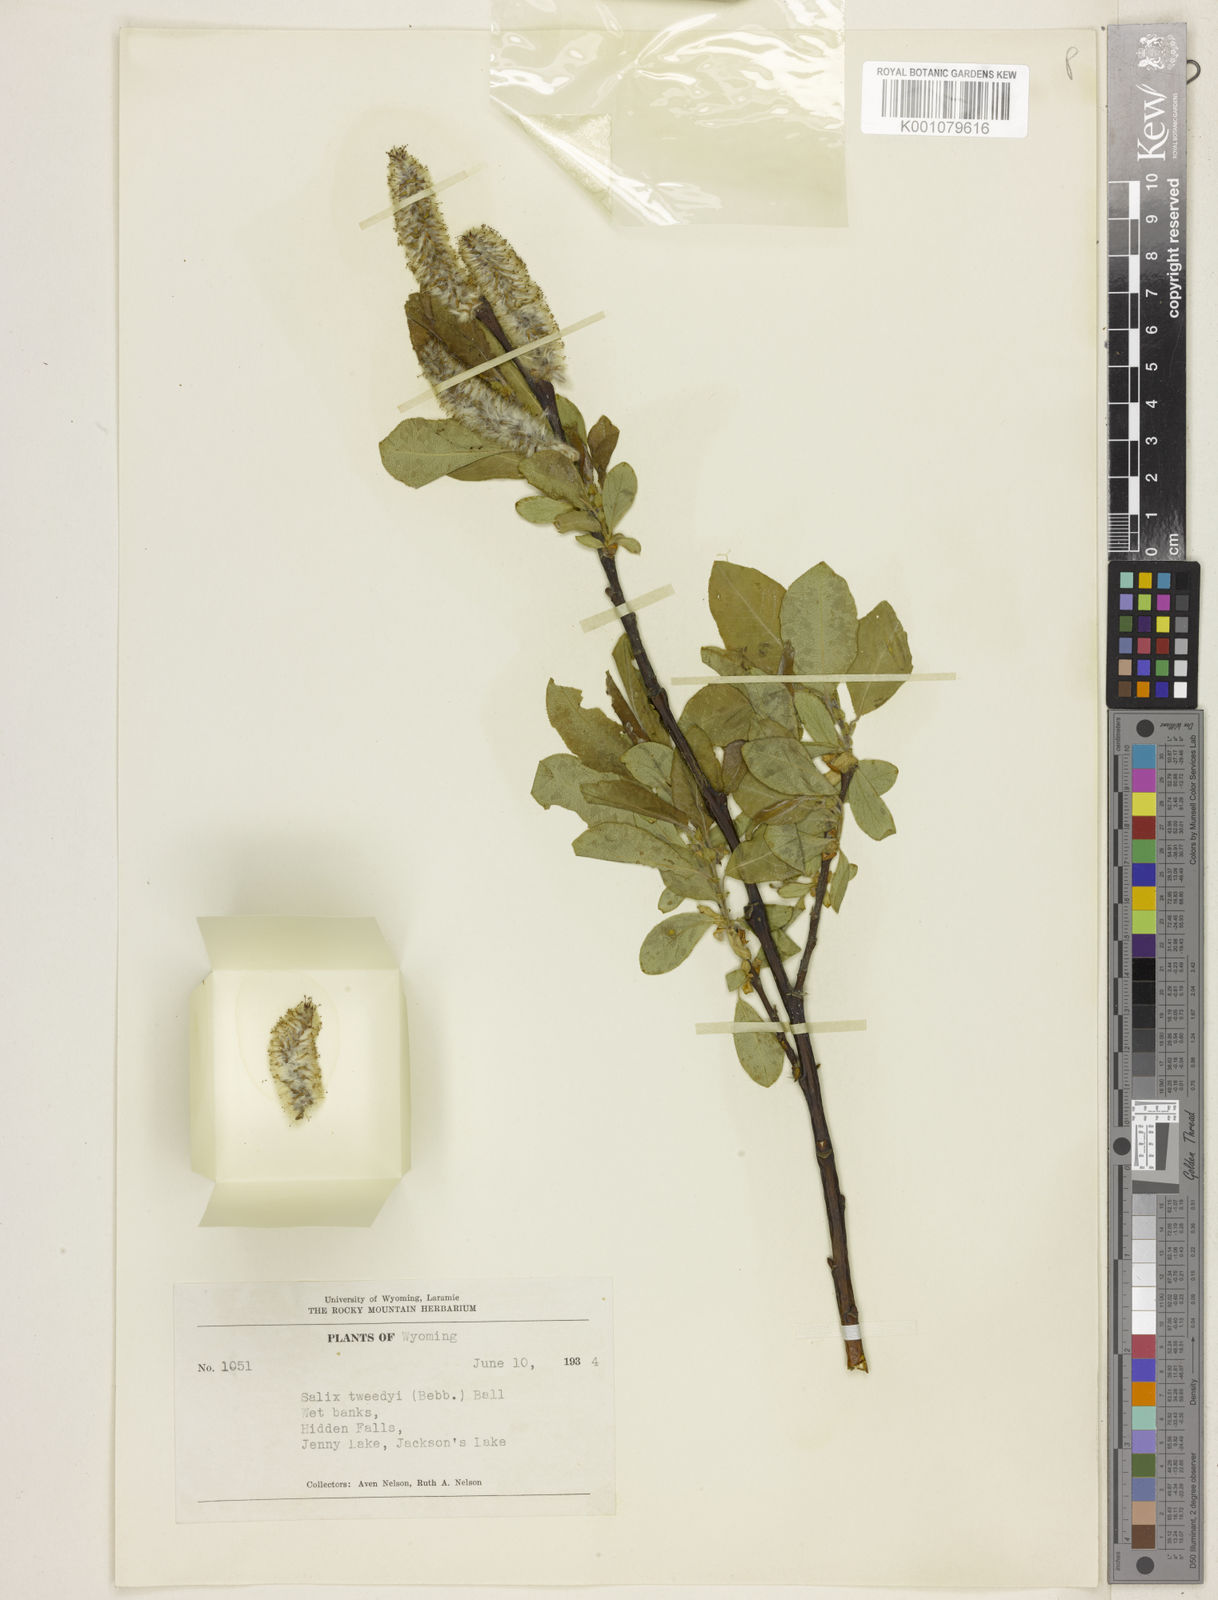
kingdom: Plantae
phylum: Tracheophyta
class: Magnoliopsida
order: Malpighiales
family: Salicaceae
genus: Salix
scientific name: Salix tweedyi
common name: Tweedy's willow
